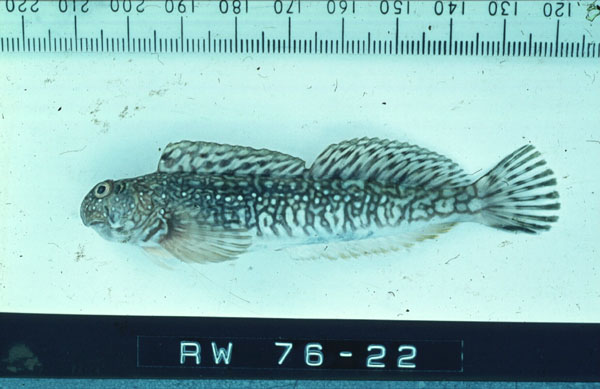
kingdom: Animalia
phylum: Chordata
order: Perciformes
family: Blenniidae
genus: Istiblennius
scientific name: Istiblennius spilotus
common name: Spotted rockskipper
